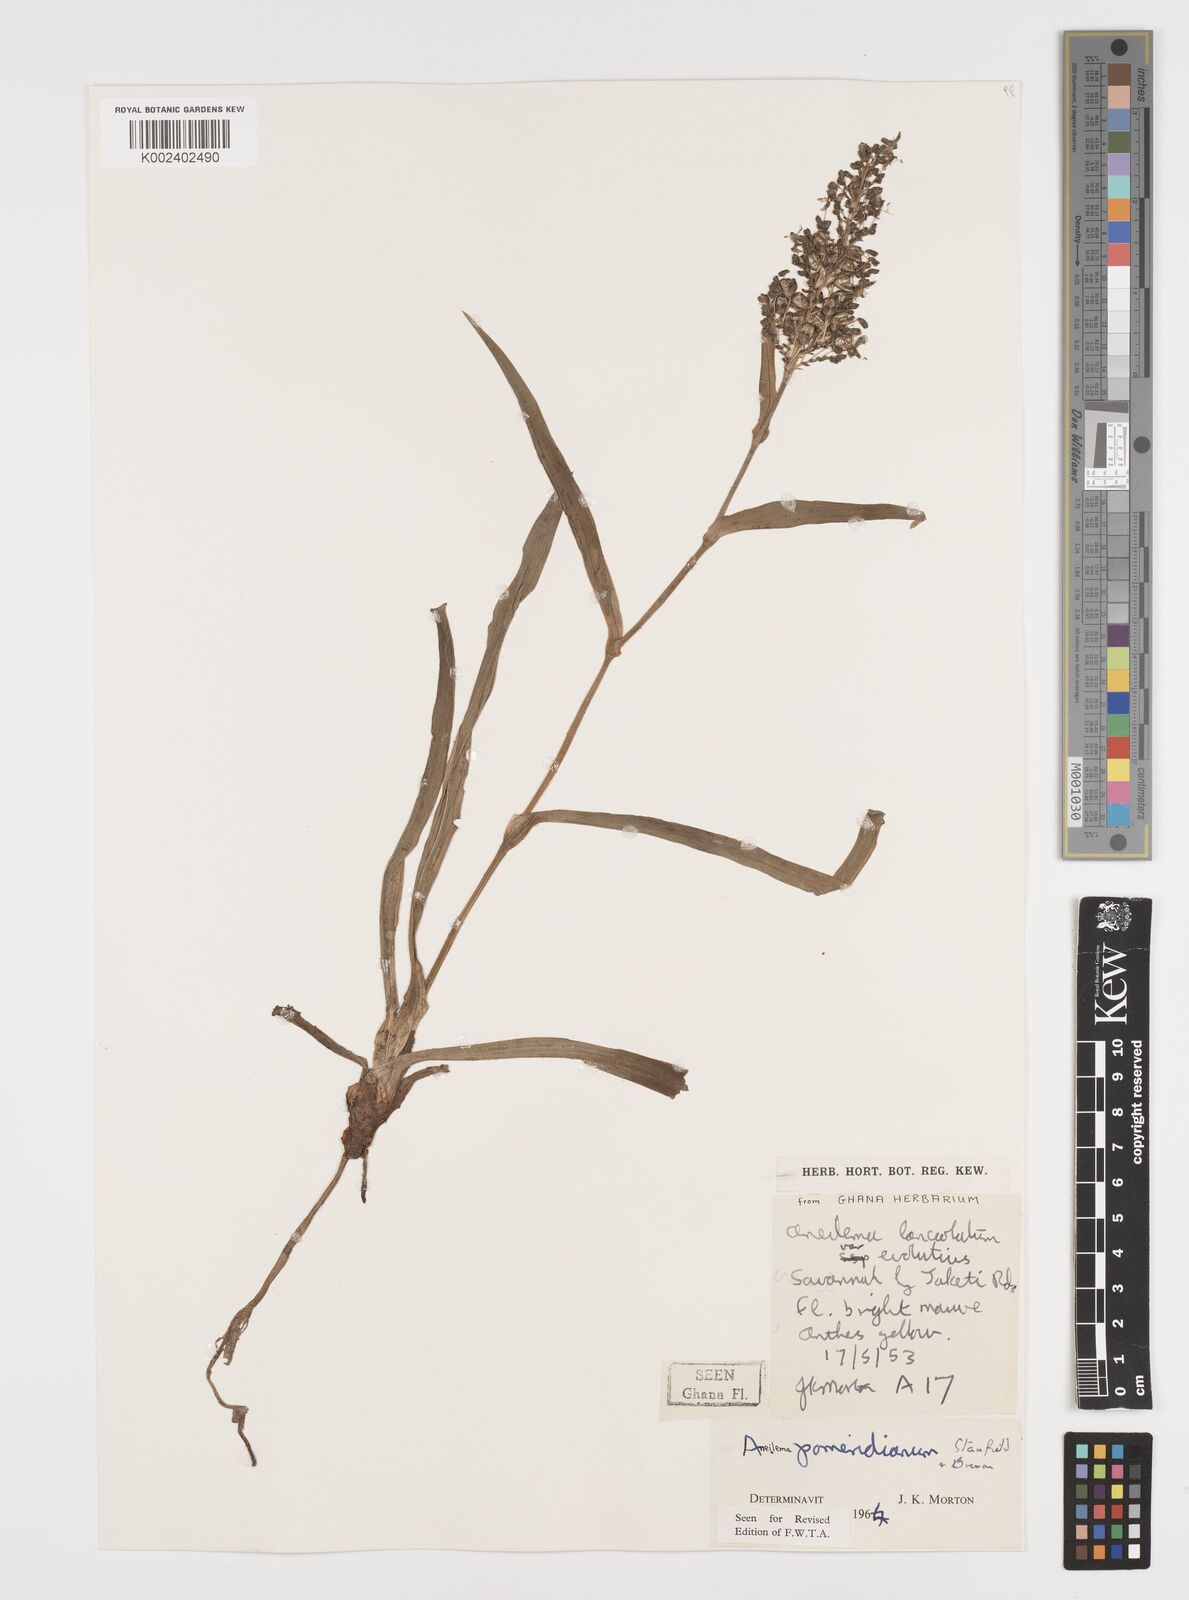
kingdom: Plantae
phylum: Tracheophyta
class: Liliopsida
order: Commelinales
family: Commelinaceae
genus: Aneilema
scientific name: Aneilema pomeridianum
